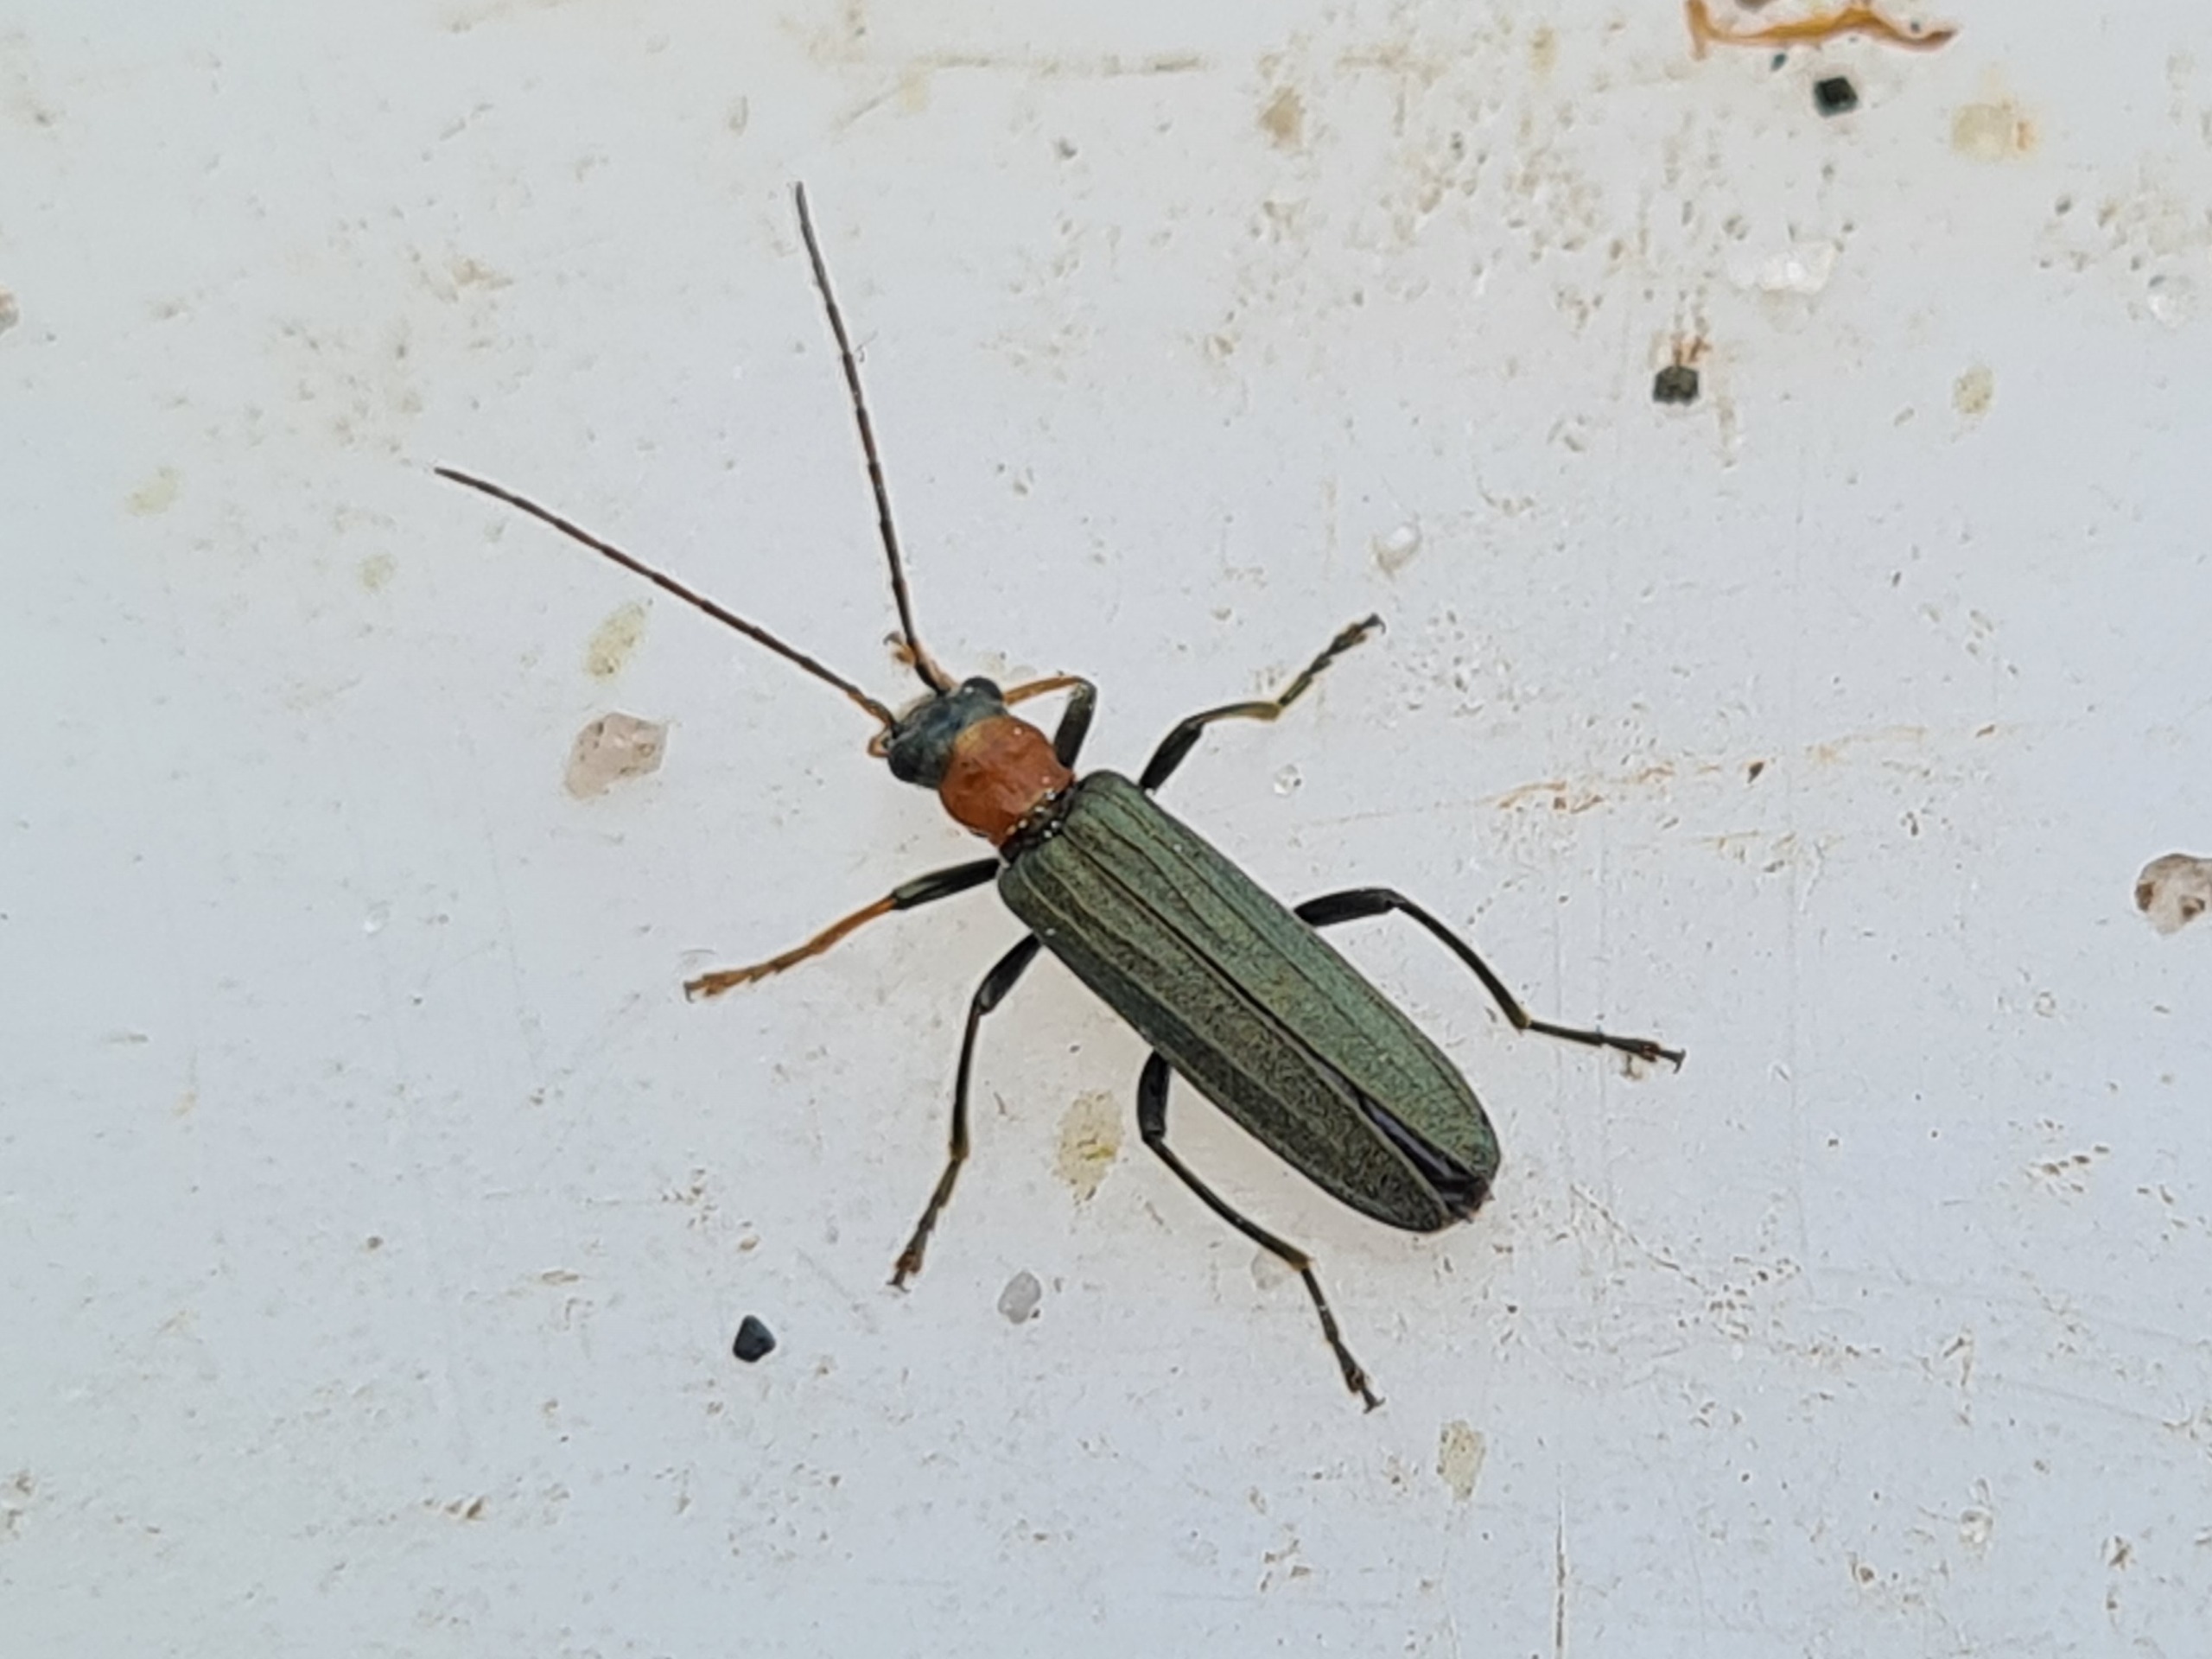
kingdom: Animalia
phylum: Arthropoda
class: Insecta
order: Coleoptera
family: Oedemeridae
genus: Oedemera
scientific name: Oedemera croceicollis
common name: Orangebrystet solbille
